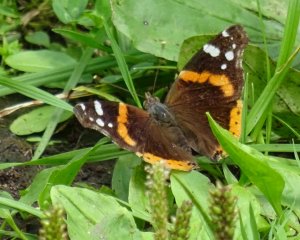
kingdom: Animalia
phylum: Arthropoda
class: Insecta
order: Lepidoptera
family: Nymphalidae
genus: Vanessa
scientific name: Vanessa atalanta
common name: Red Admiral
